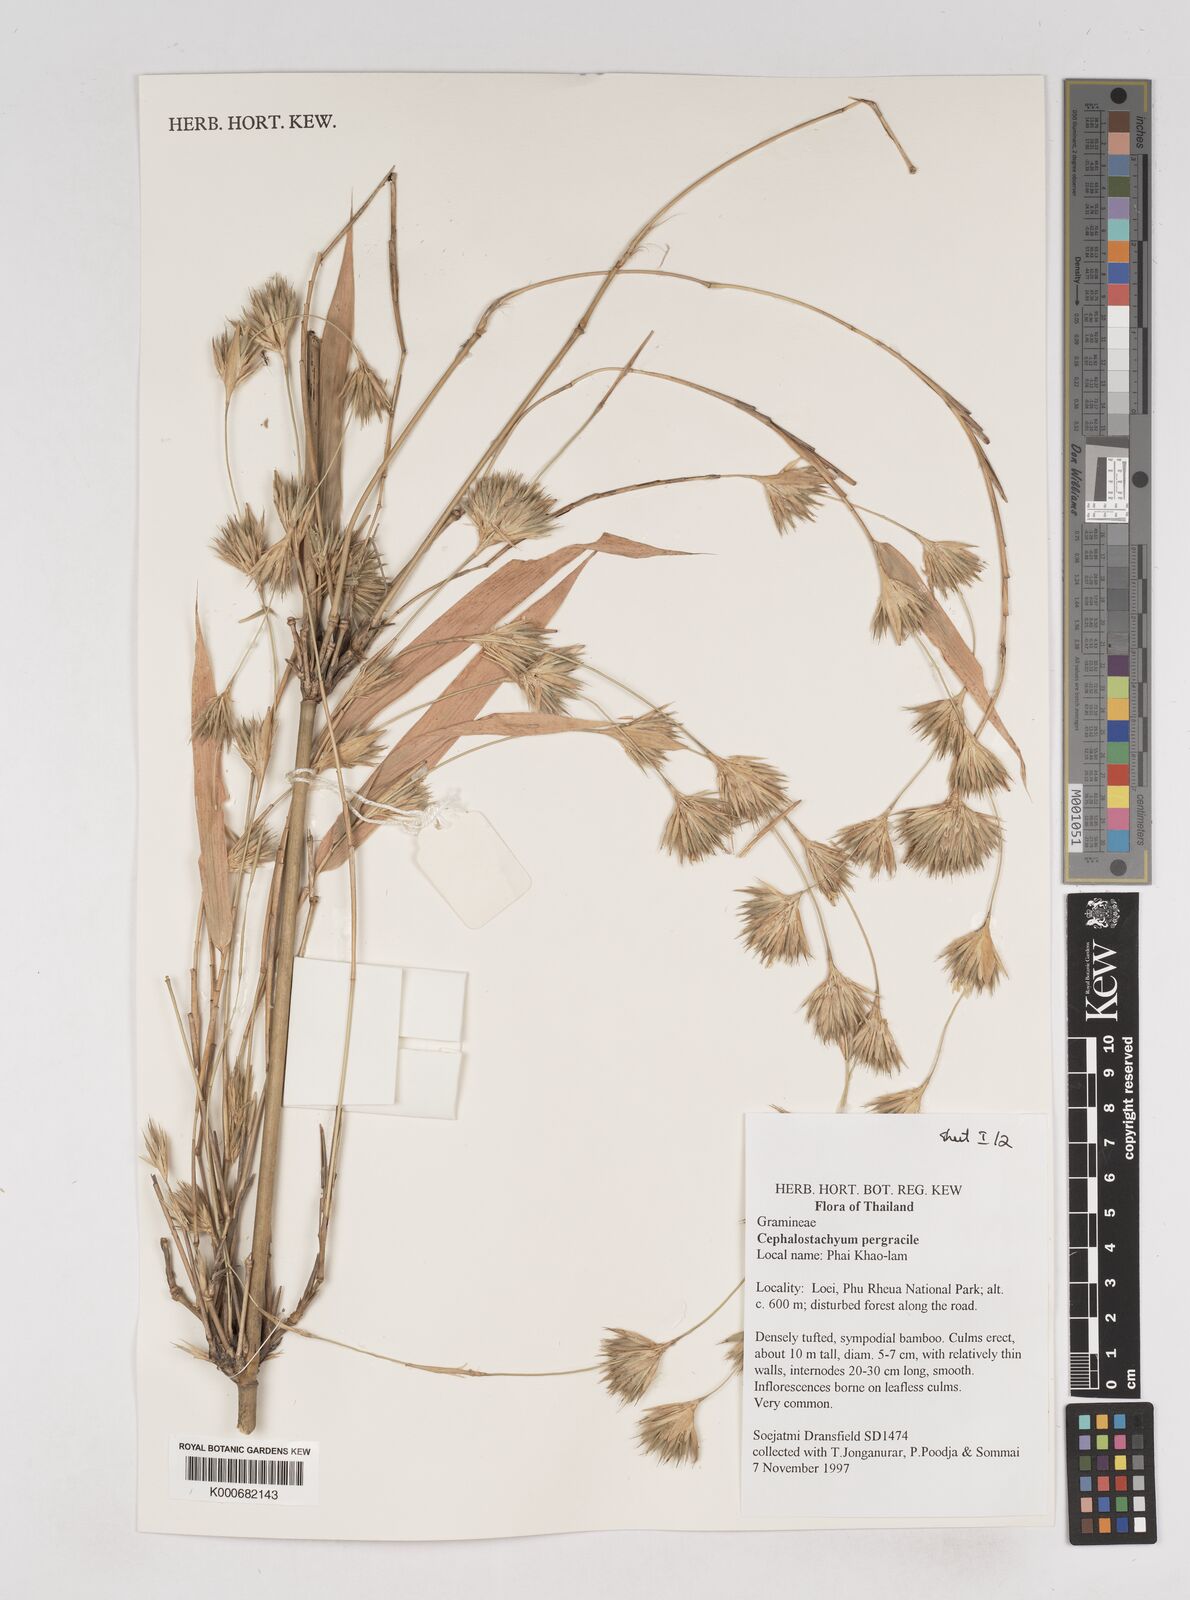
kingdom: Plantae
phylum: Tracheophyta
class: Liliopsida
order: Poales
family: Poaceae
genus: Schizostachyum
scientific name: Schizostachyum pergracile
